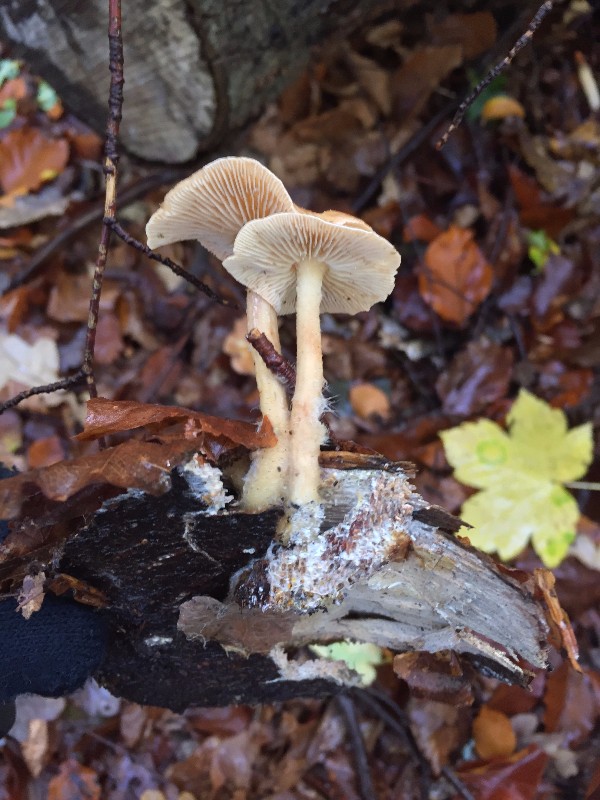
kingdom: Fungi
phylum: Basidiomycota
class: Agaricomycetes
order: Agaricales
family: Omphalotaceae
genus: Collybiopsis
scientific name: Collybiopsis peronata
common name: bestøvlet fladhat
